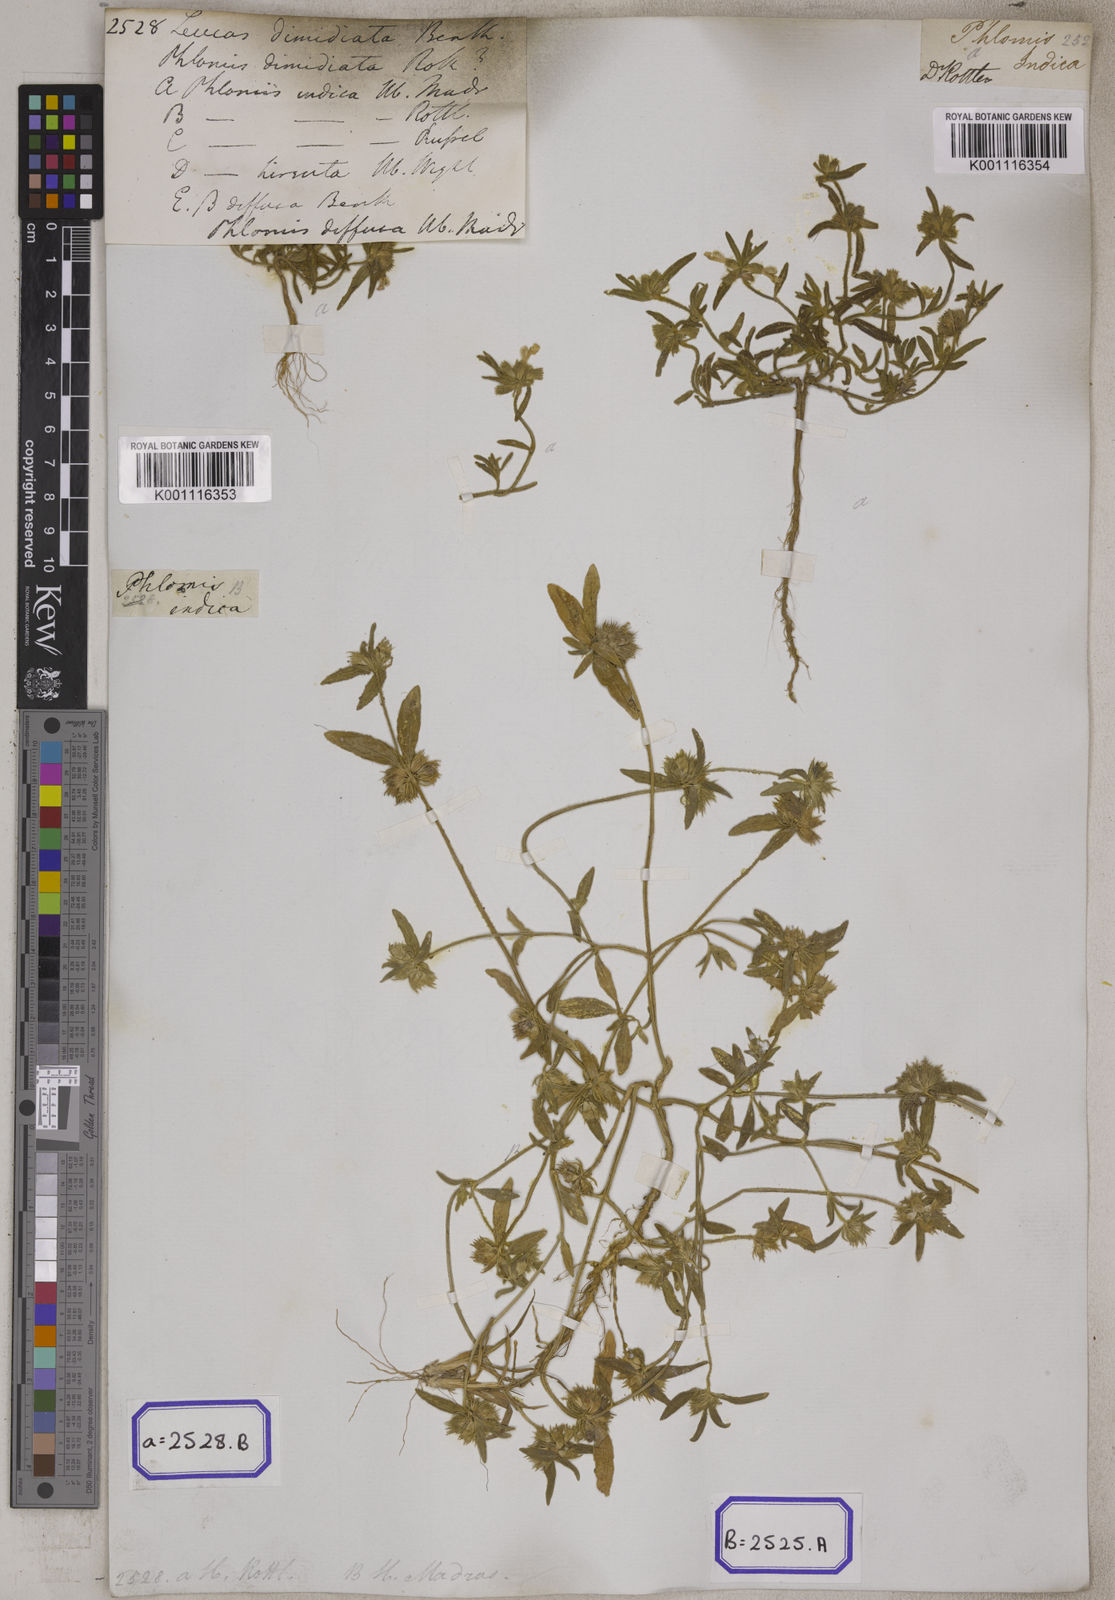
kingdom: Plantae
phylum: Tracheophyta
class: Magnoliopsida
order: Lamiales
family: Lamiaceae
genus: Leucas
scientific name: Leucas aspera
